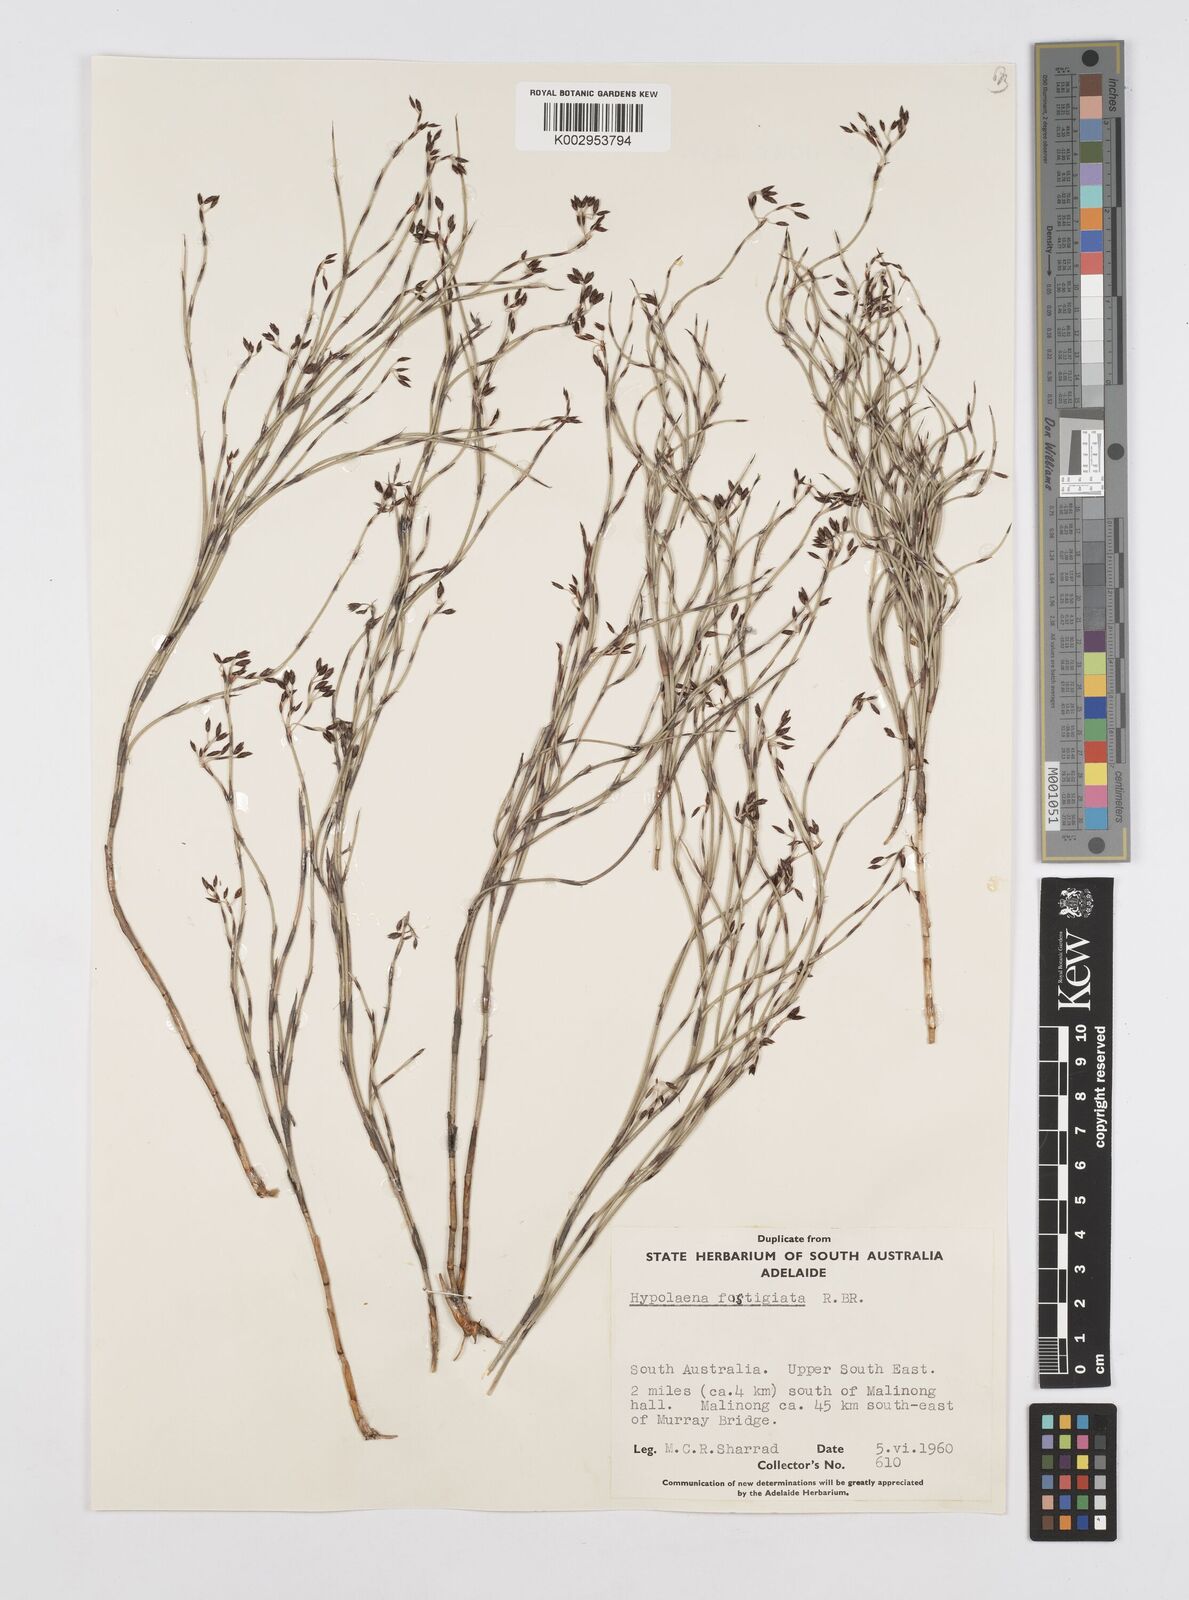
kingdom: Plantae
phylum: Tracheophyta
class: Liliopsida
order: Poales
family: Restionaceae
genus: Hypolaena
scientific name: Hypolaena fastigiata
